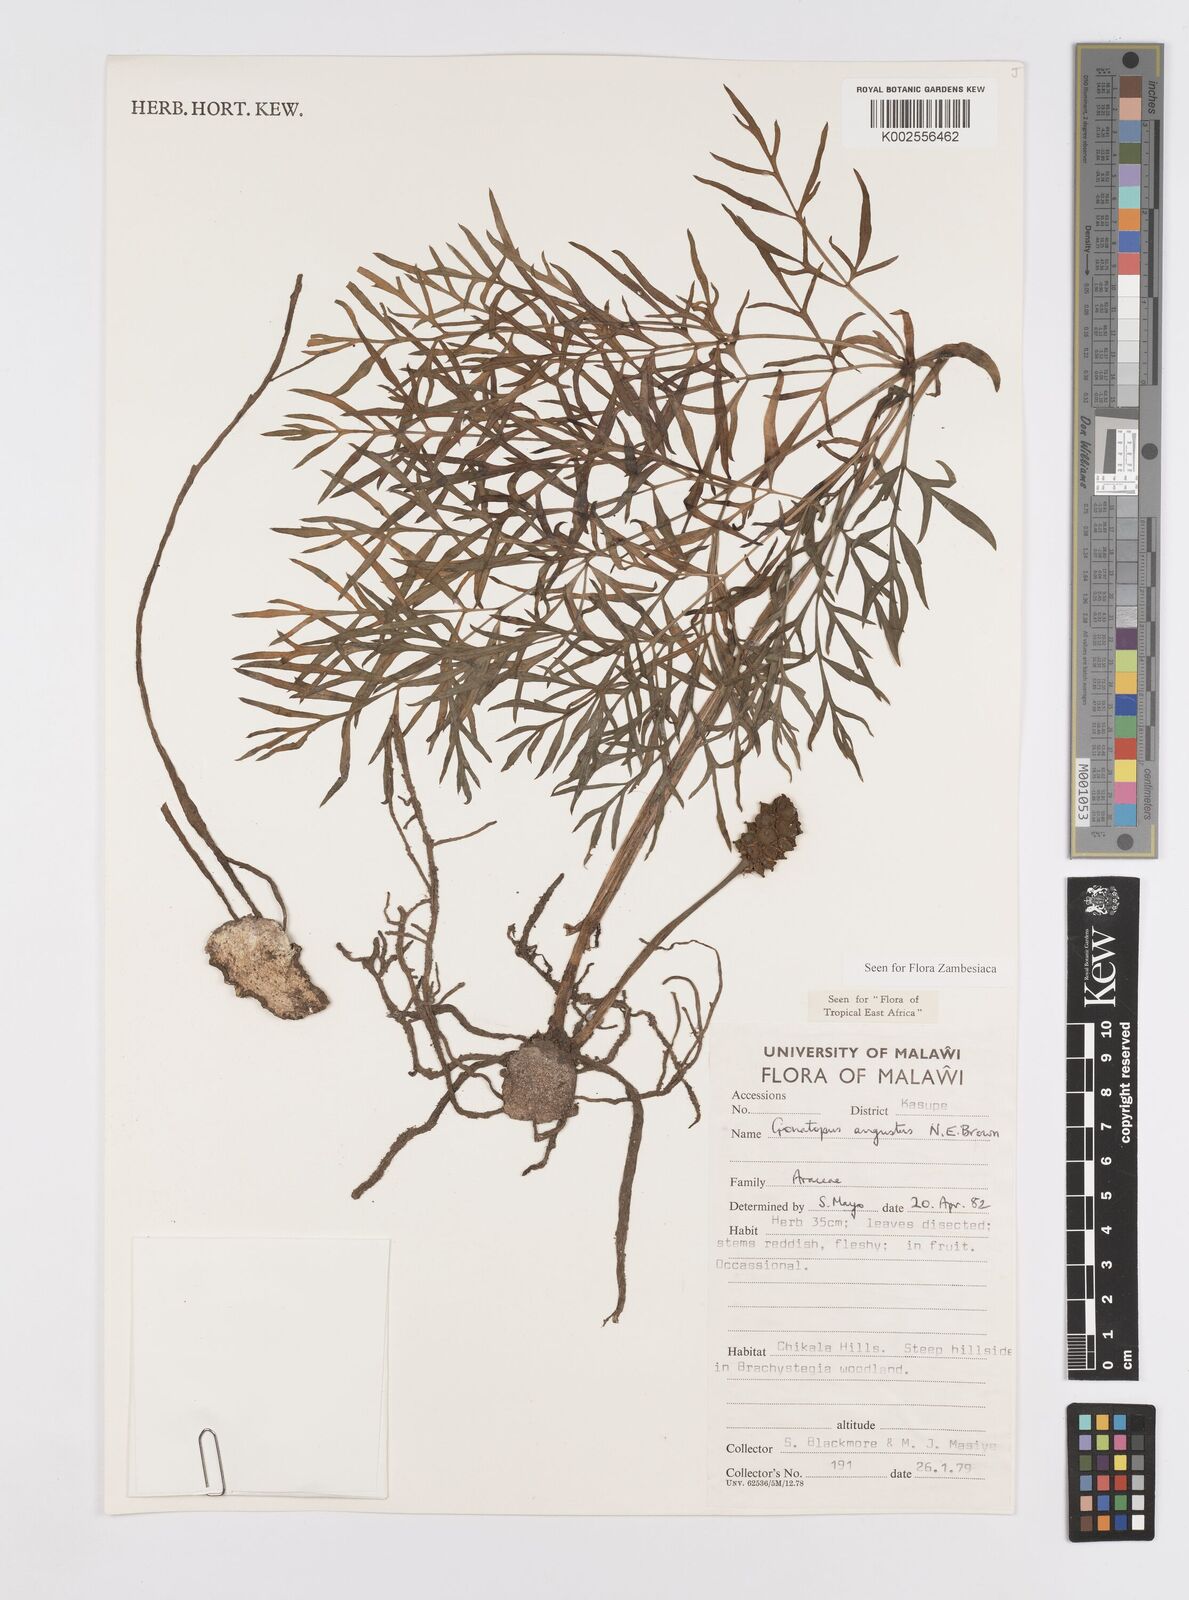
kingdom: Plantae
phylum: Tracheophyta
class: Liliopsida
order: Alismatales
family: Araceae
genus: Gonatopus
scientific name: Gonatopus angustus
